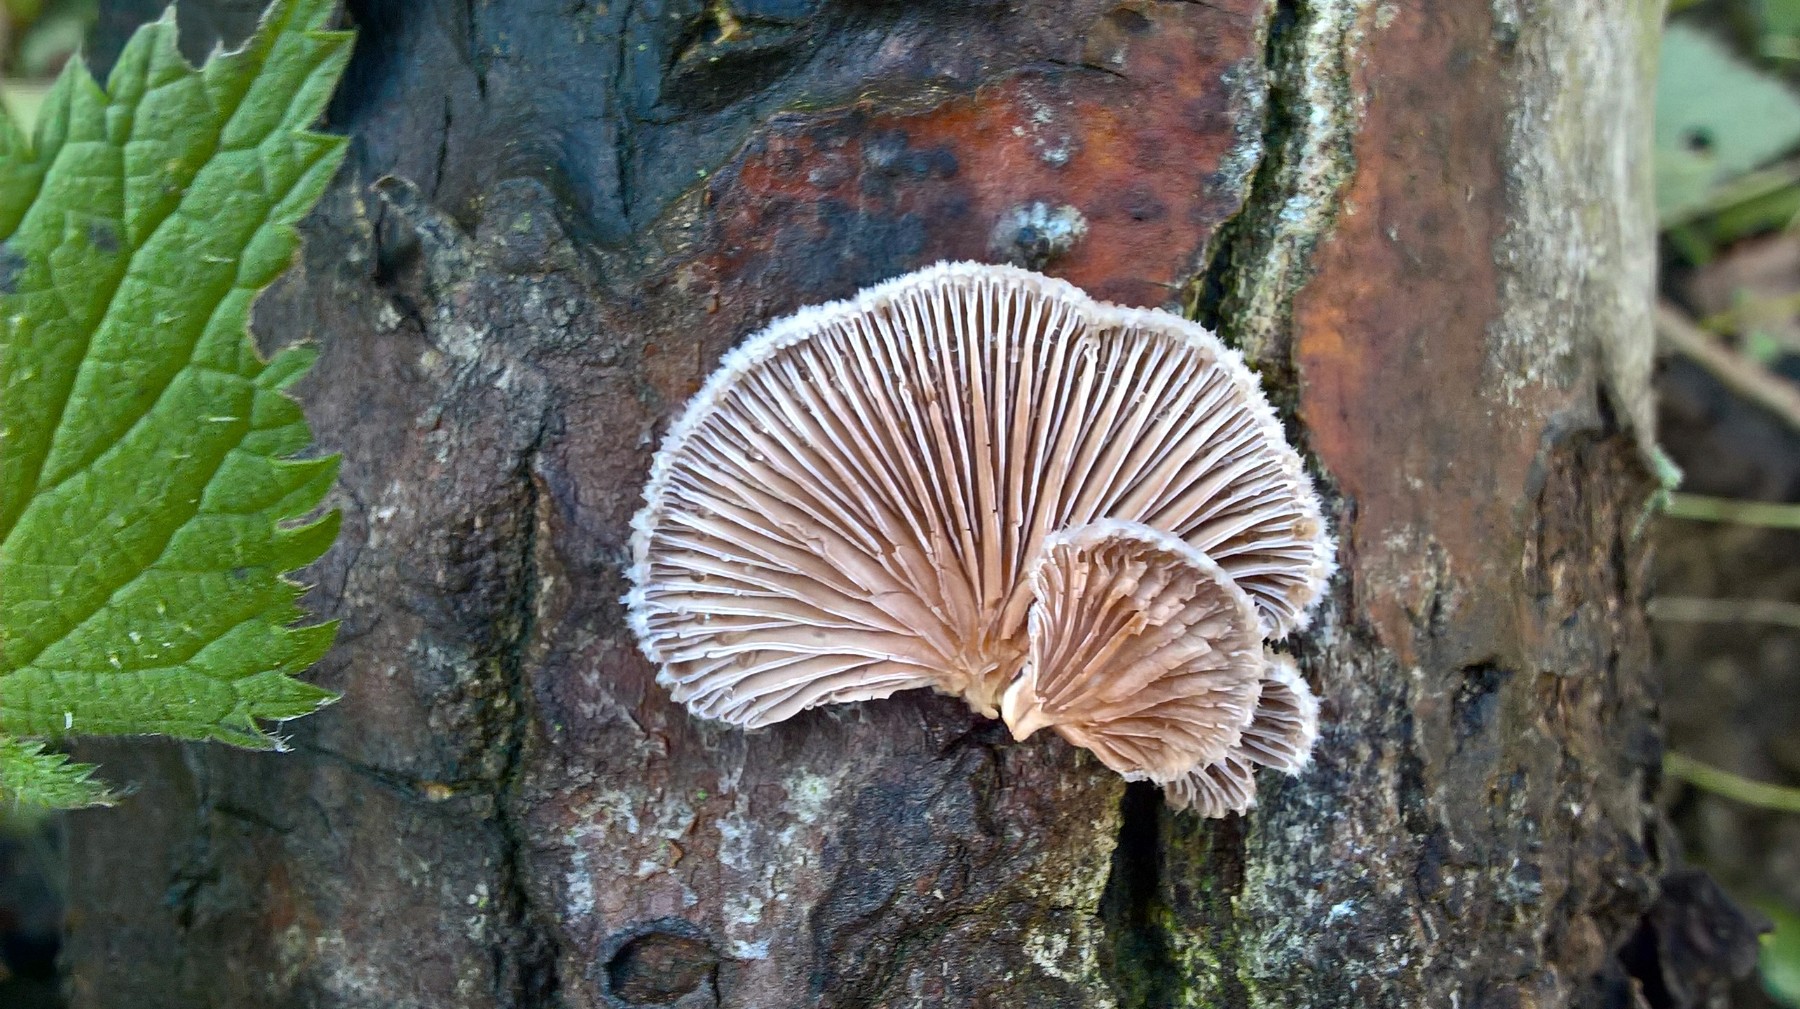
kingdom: Fungi
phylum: Basidiomycota
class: Agaricomycetes
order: Agaricales
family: Schizophyllaceae
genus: Schizophyllum
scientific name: Schizophyllum commune
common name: kløvblad
